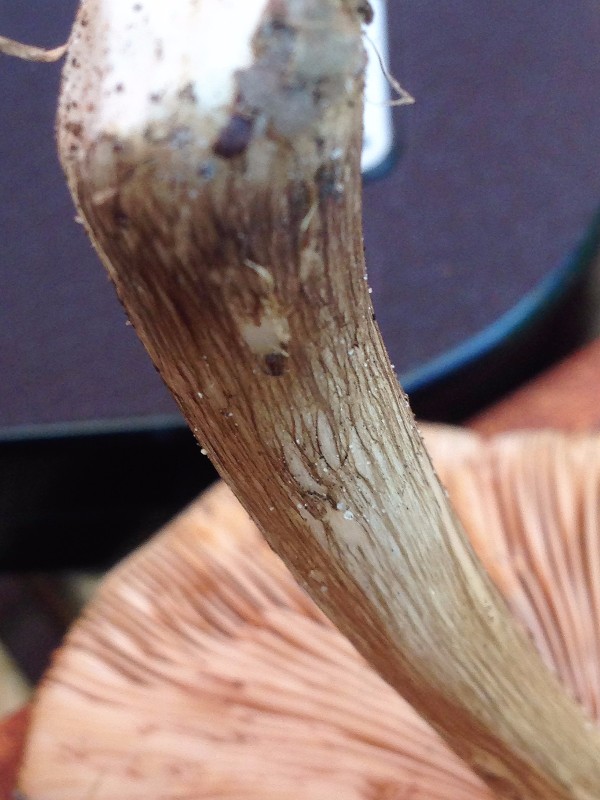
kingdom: Fungi
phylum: Basidiomycota
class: Agaricomycetes
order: Agaricales
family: Pluteaceae
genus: Pluteus
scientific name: Pluteus cervinus
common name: sodfarvet skærmhat
